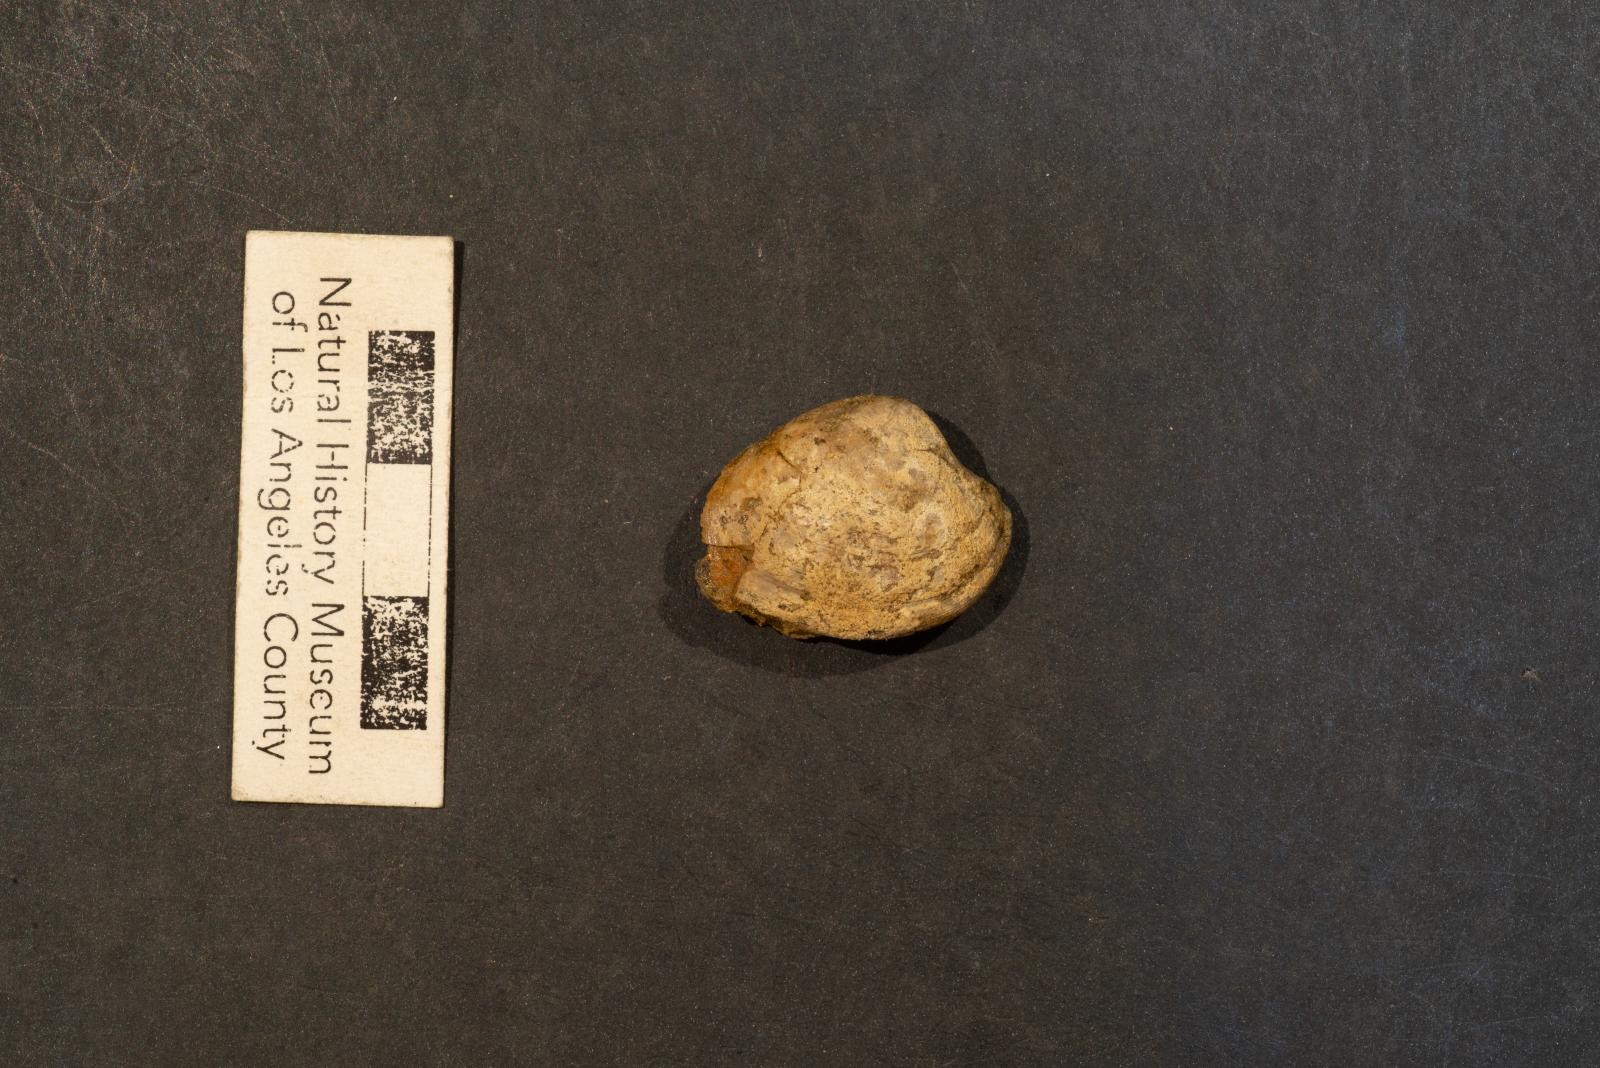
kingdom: Animalia
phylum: Mollusca
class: Bivalvia
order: Venerida
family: Veneridae
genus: Callistalox
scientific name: Callistalox Meretrix arata
